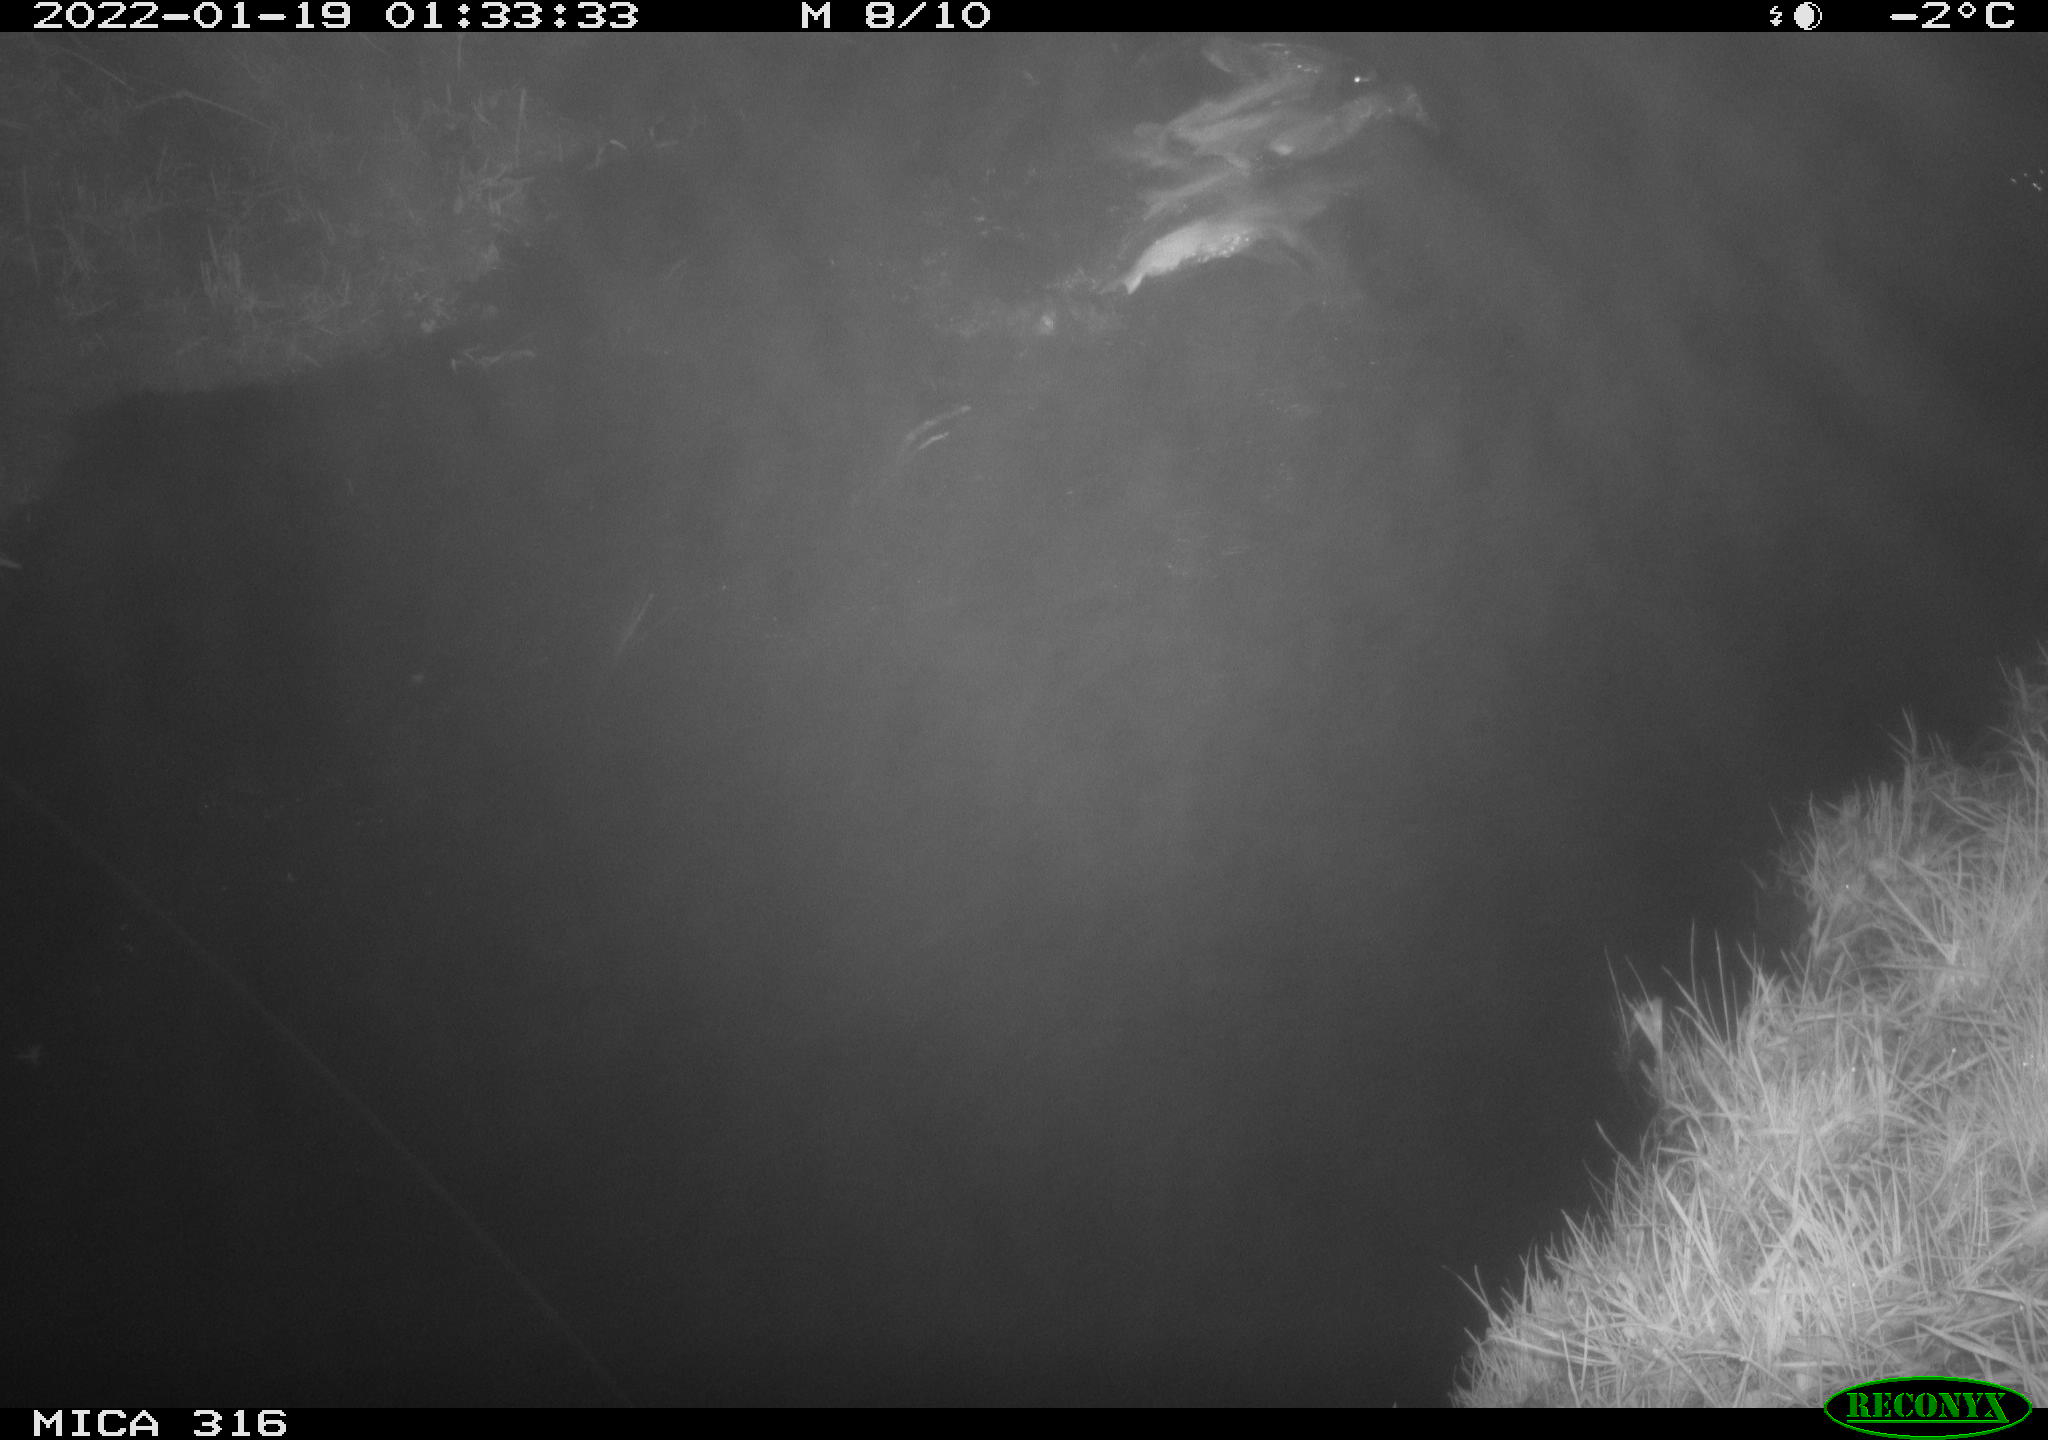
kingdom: Animalia
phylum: Chordata
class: Aves
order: Anseriformes
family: Anatidae
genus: Anas
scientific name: Anas platyrhynchos
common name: Mallard
